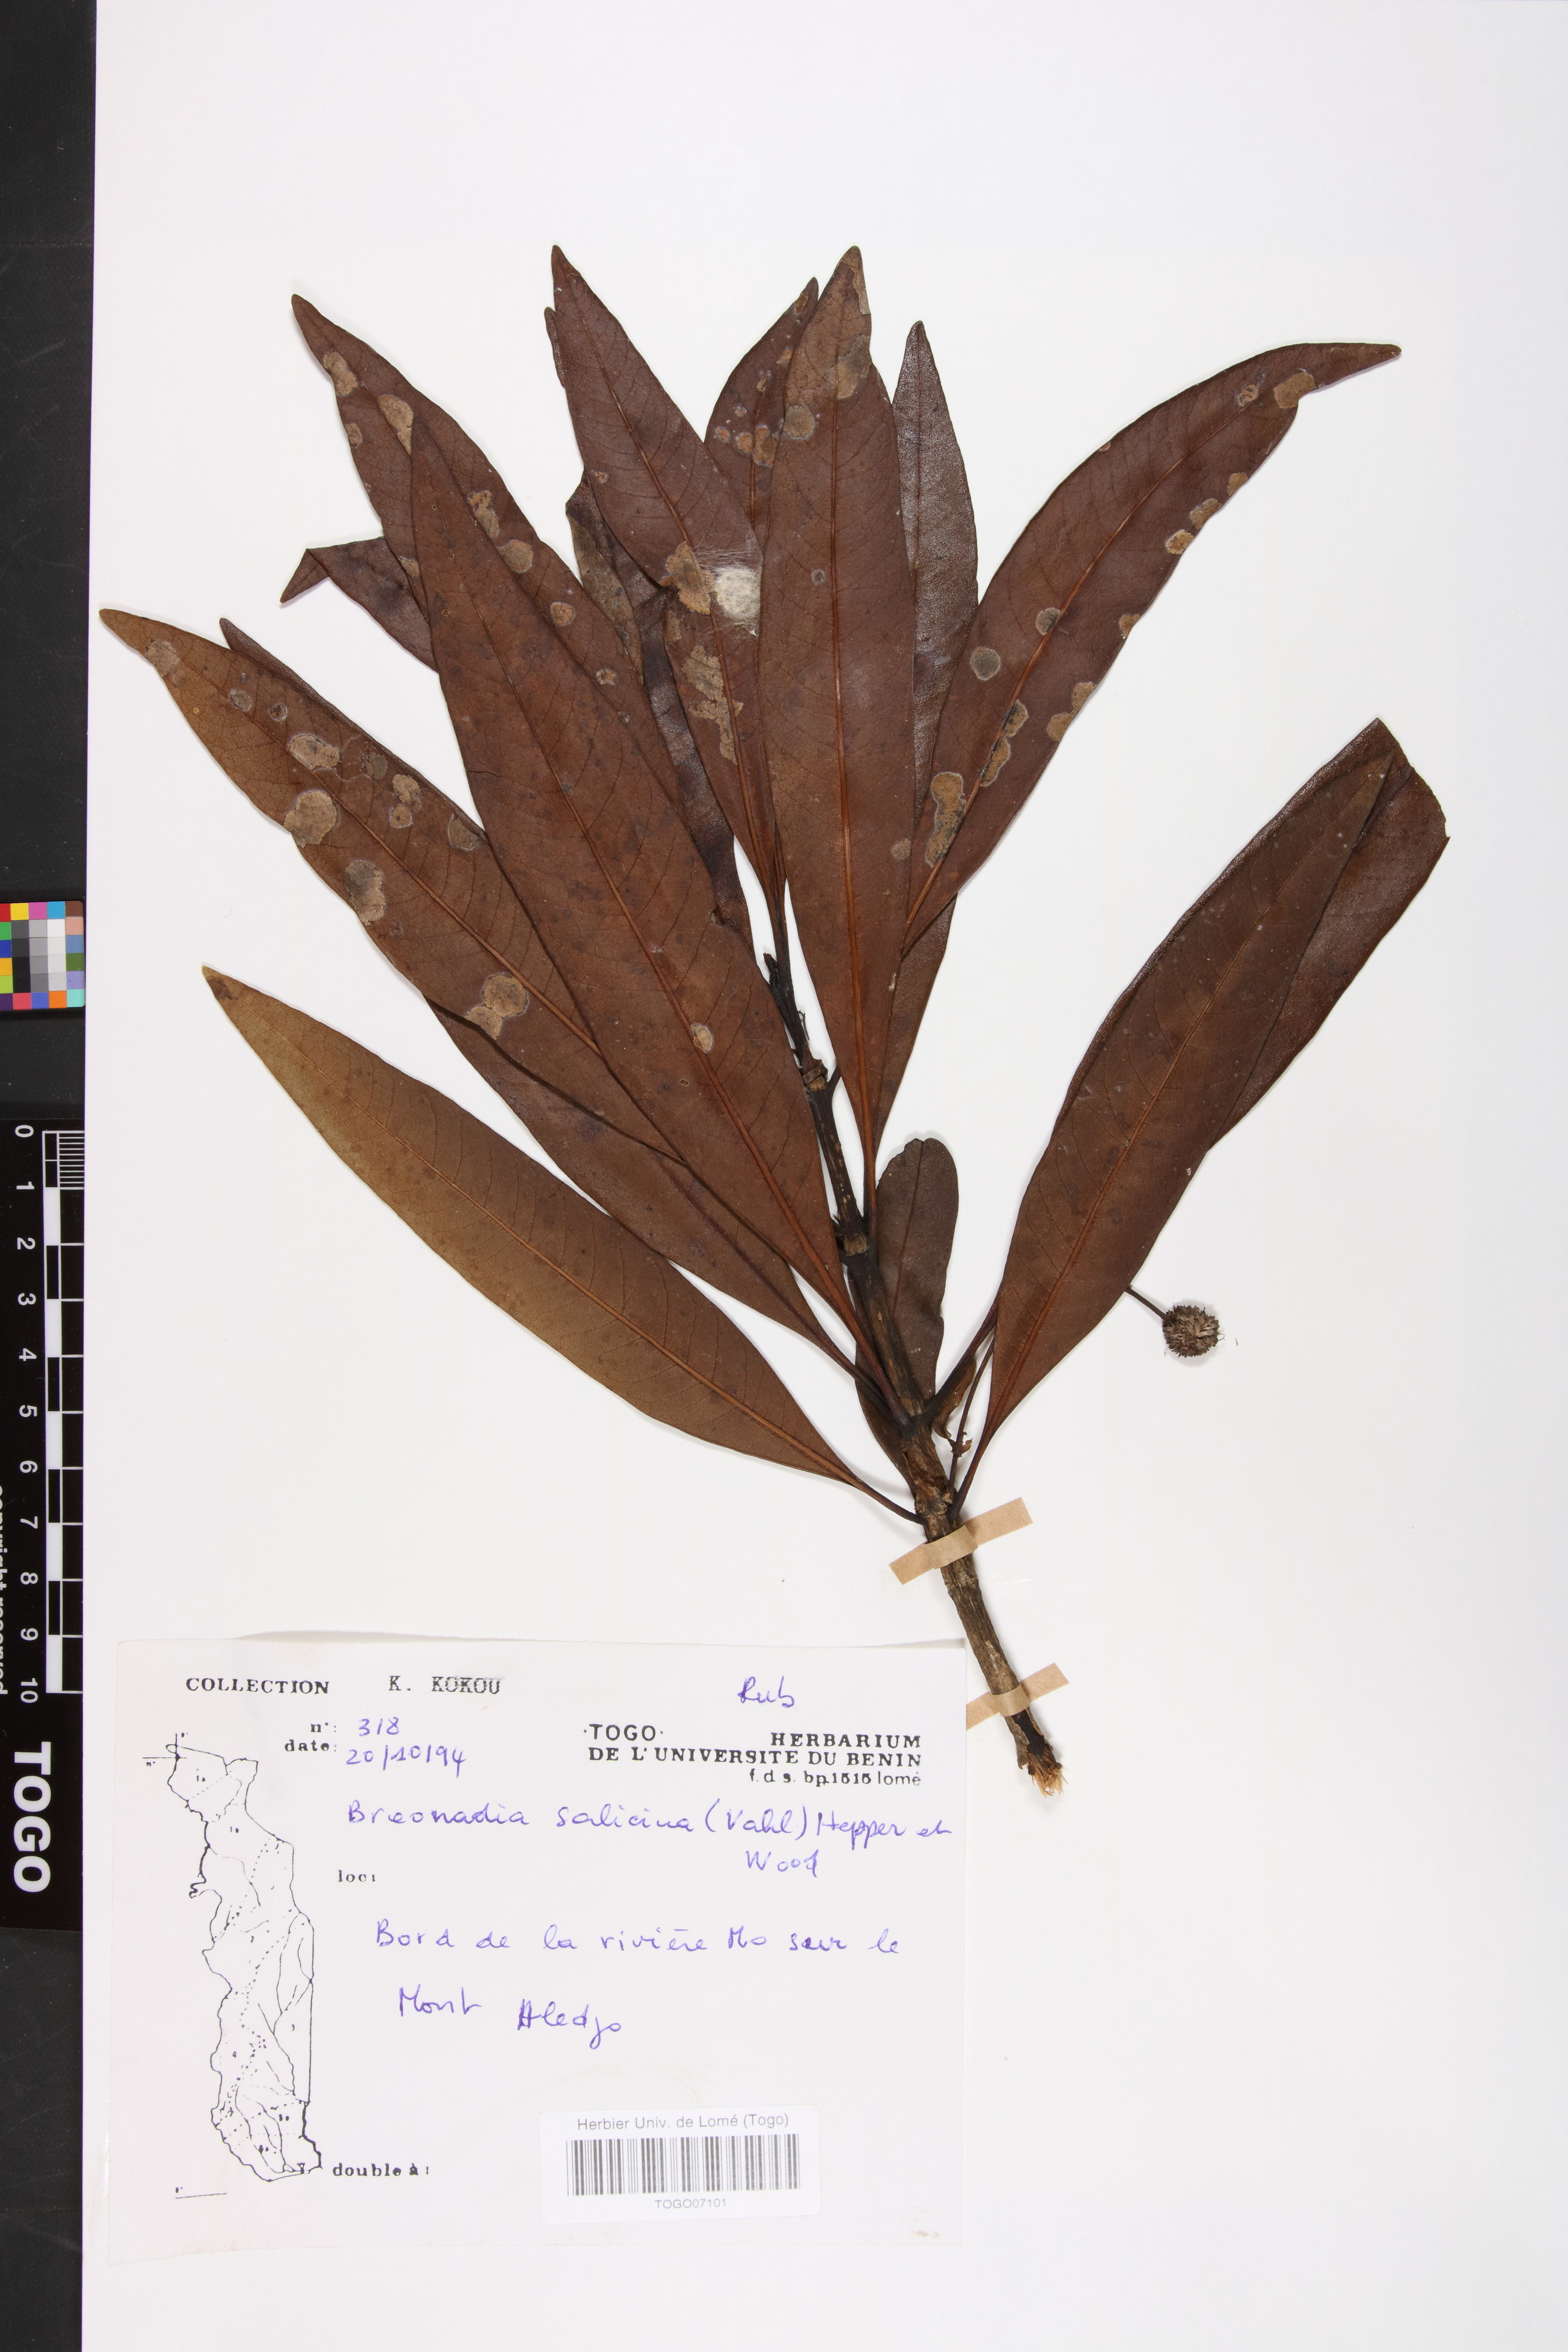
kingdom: Plantae
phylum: Tracheophyta
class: Magnoliopsida
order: Gentianales
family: Rubiaceae
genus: Breonadia
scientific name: Breonadia salicina
